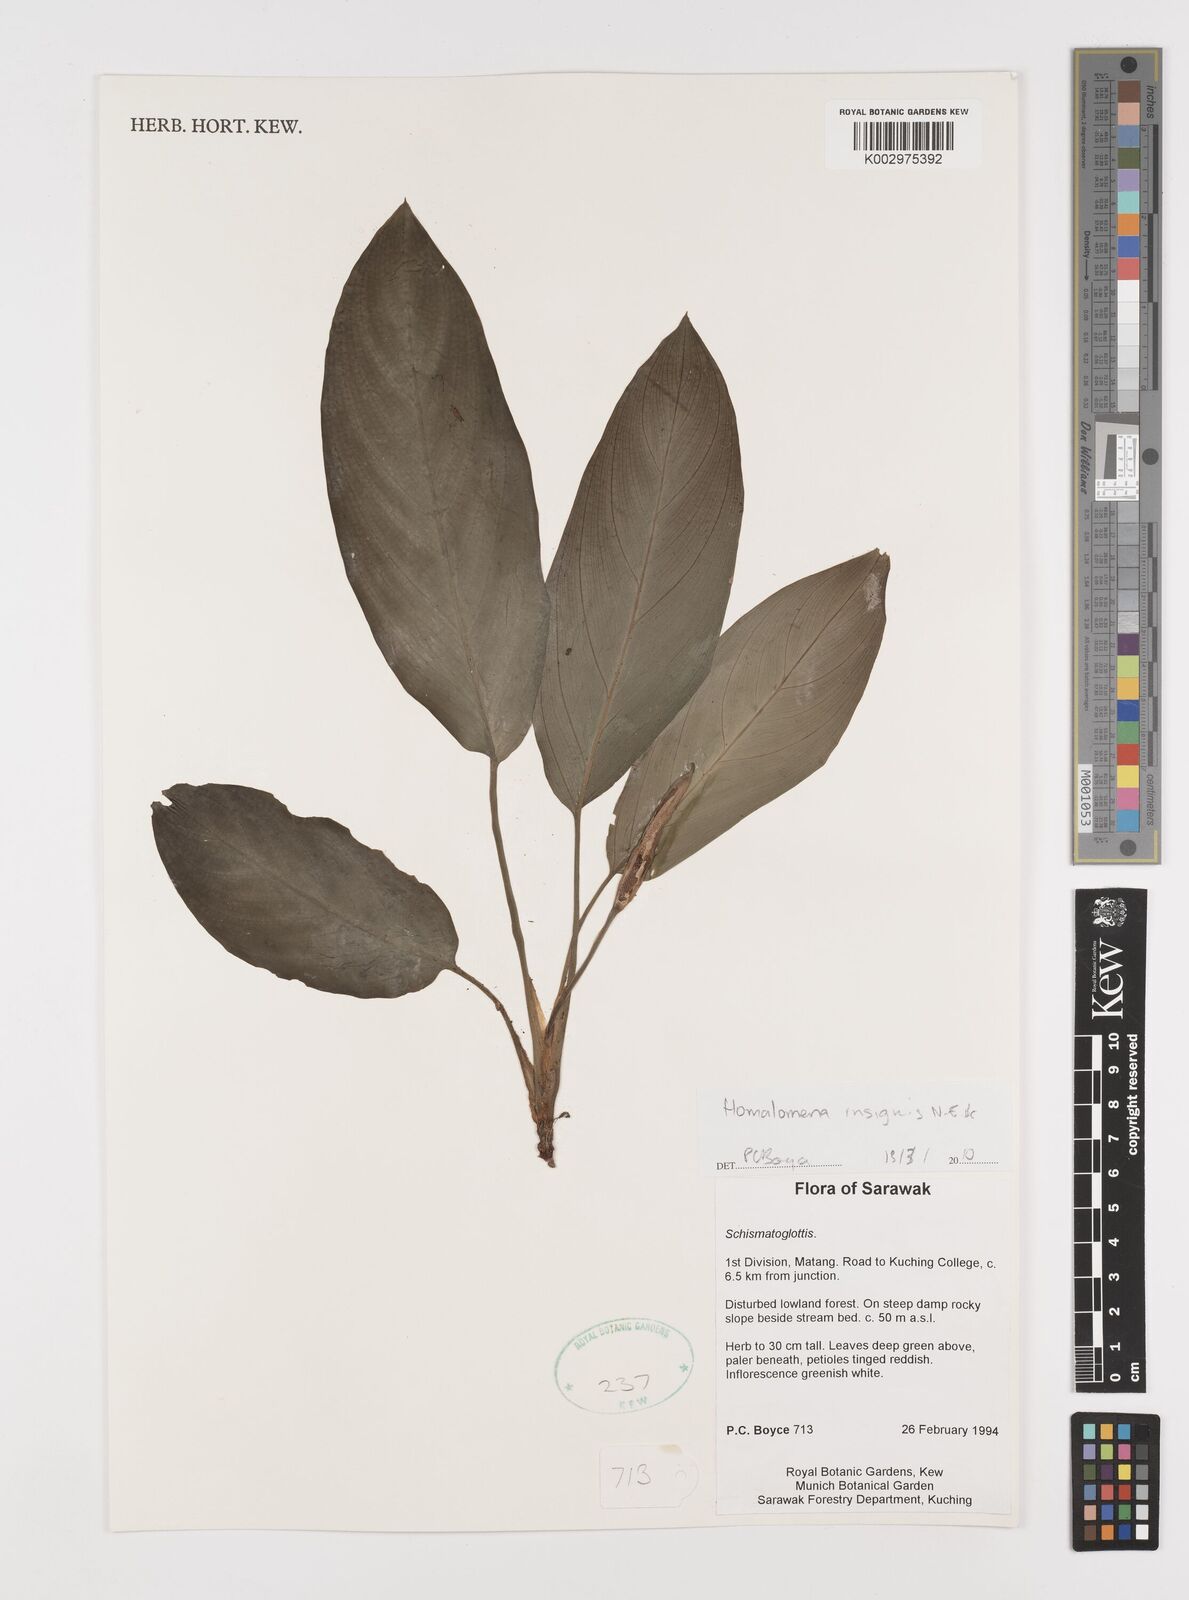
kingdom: Plantae
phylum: Tracheophyta
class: Liliopsida
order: Alismatales
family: Araceae
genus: Homalomena
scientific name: Homalomena insignis
